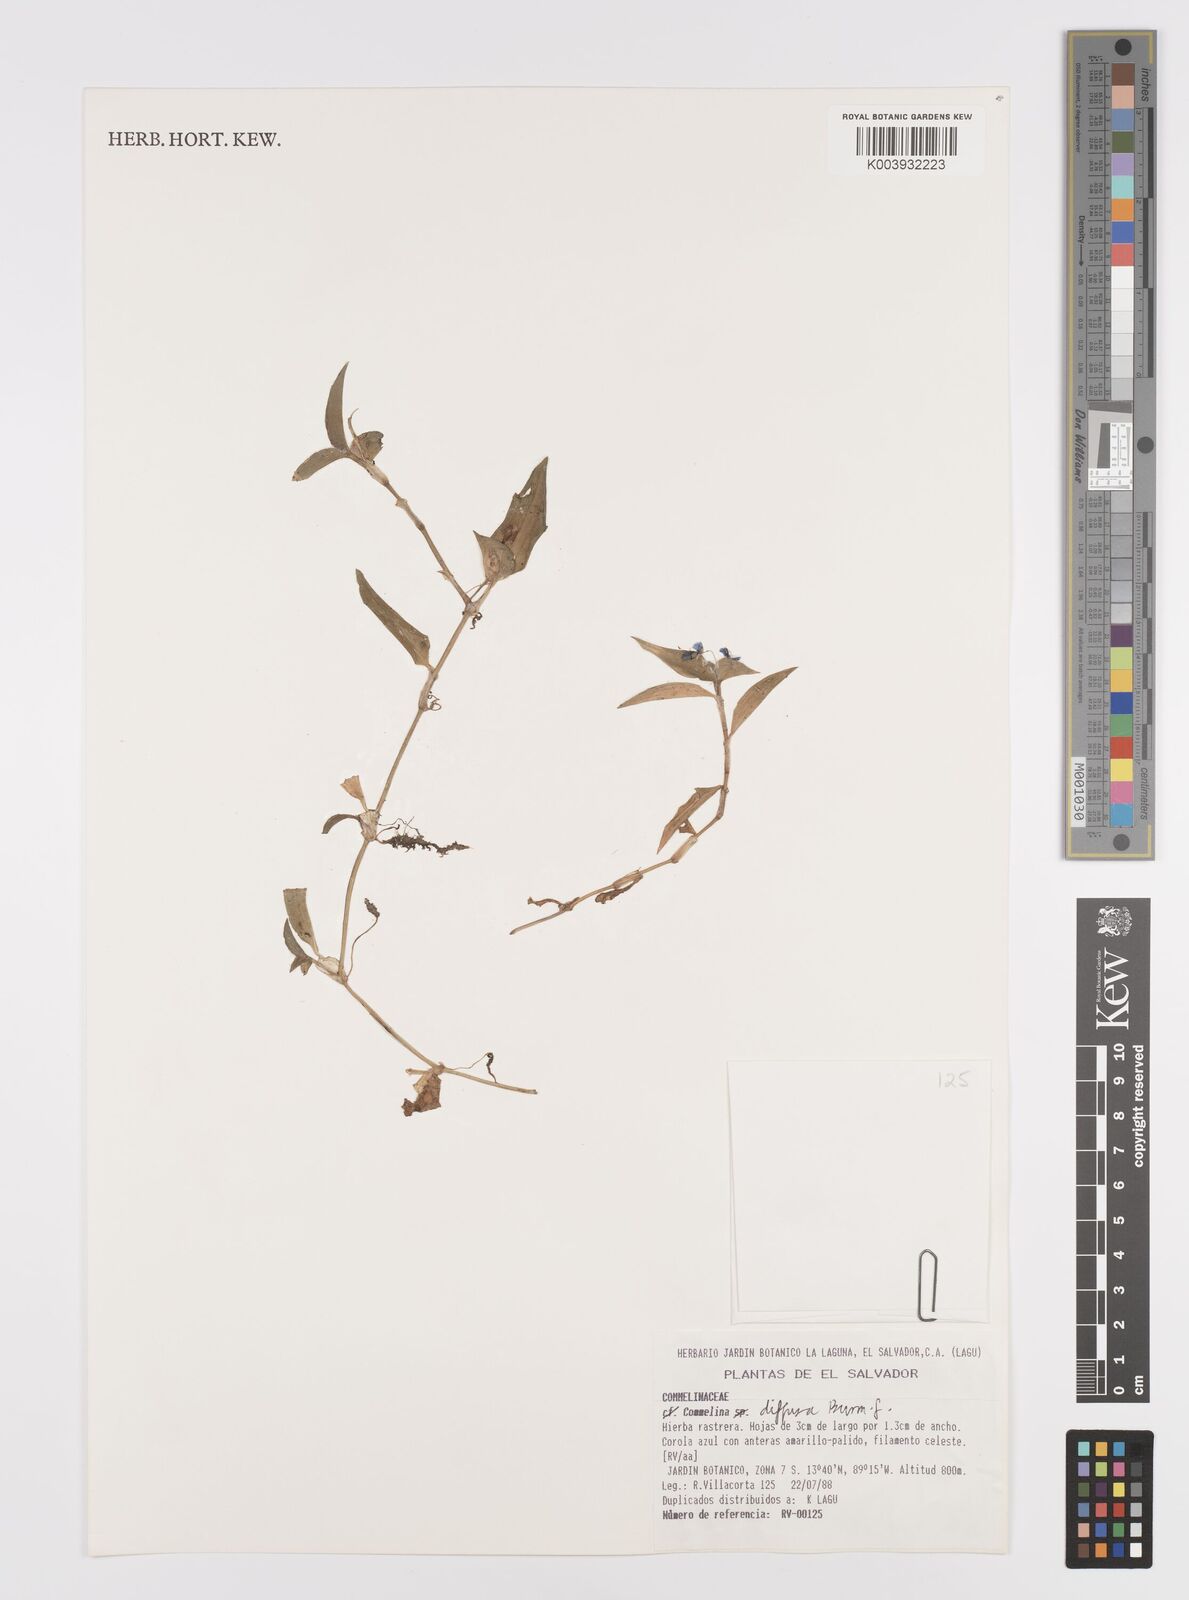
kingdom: Plantae
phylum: Tracheophyta
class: Liliopsida
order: Commelinales
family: Commelinaceae
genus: Commelina
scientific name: Commelina diffusa
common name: Climbing dayflower
